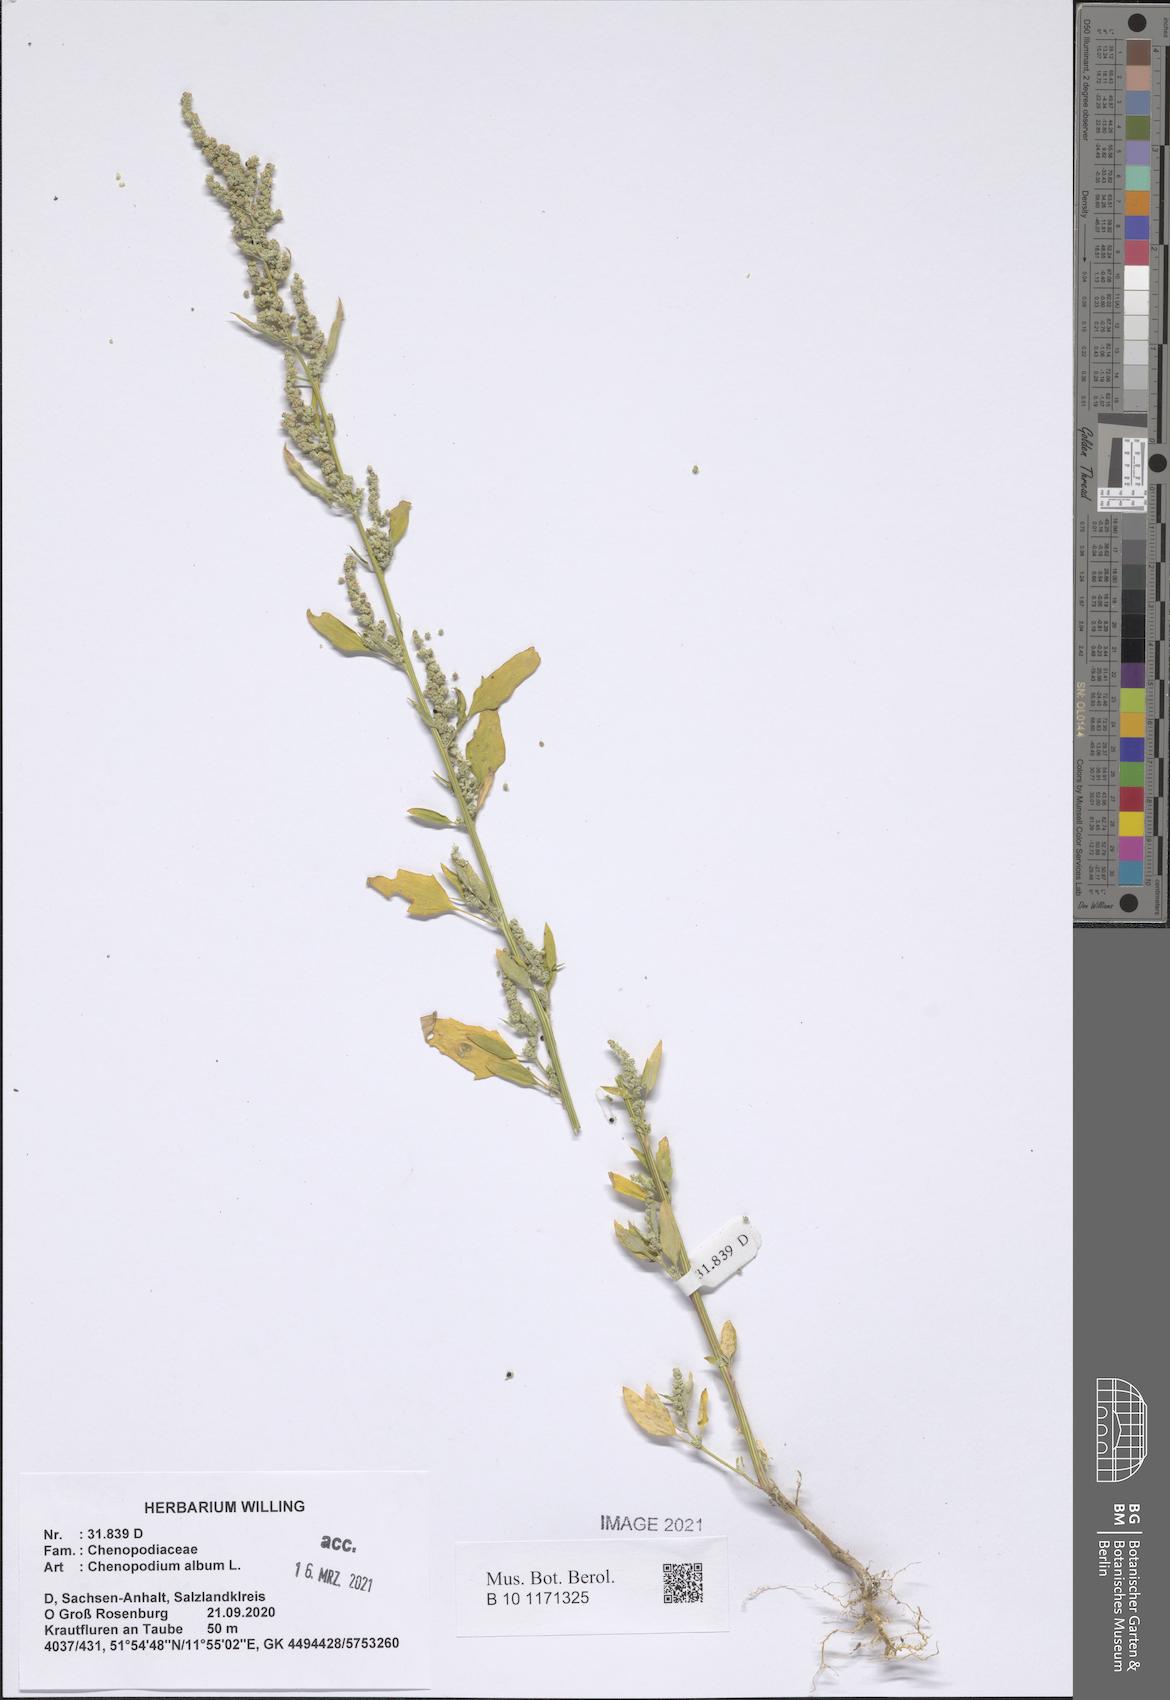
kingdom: Plantae
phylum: Tracheophyta
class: Magnoliopsida
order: Caryophyllales
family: Amaranthaceae
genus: Chenopodium
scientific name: Chenopodium album
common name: Fat-hen
